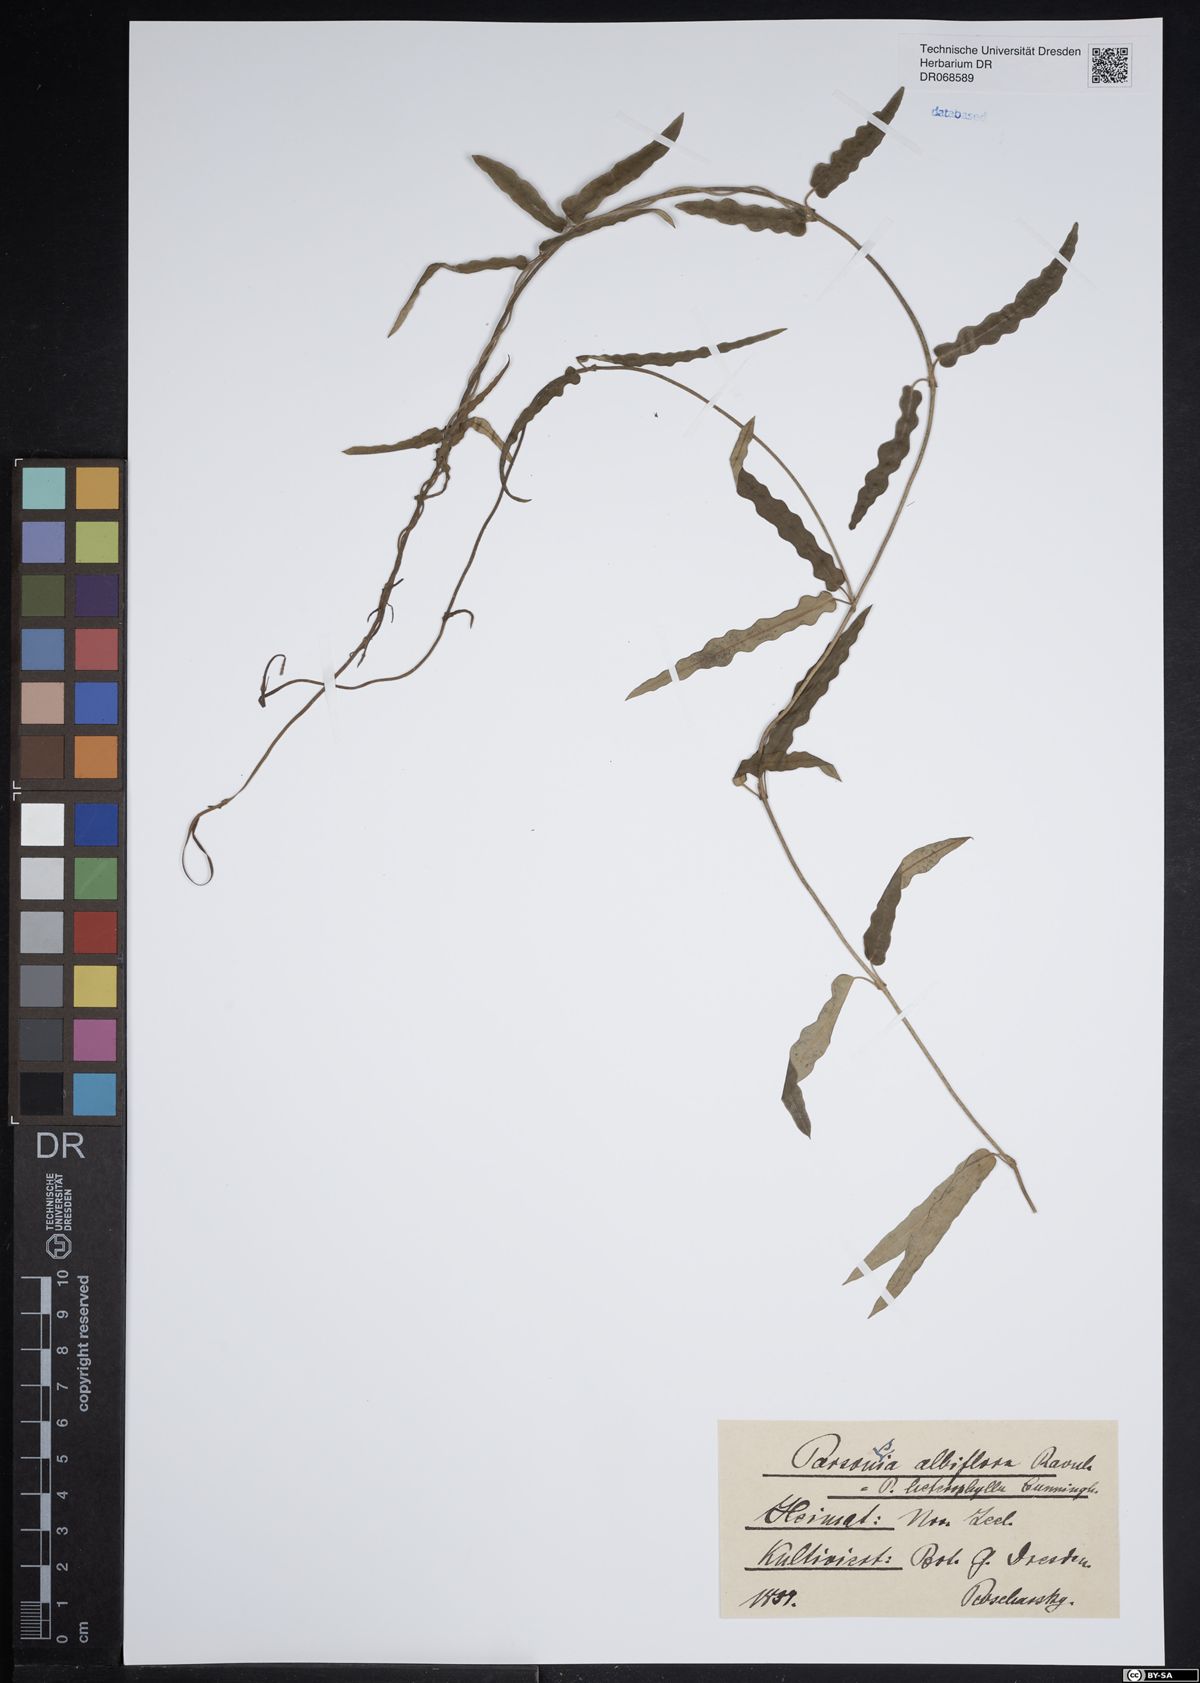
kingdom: Plantae
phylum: Tracheophyta
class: Magnoliopsida
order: Gentianales
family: Apocynaceae
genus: Parsonsia
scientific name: Parsonsia heterophylla
